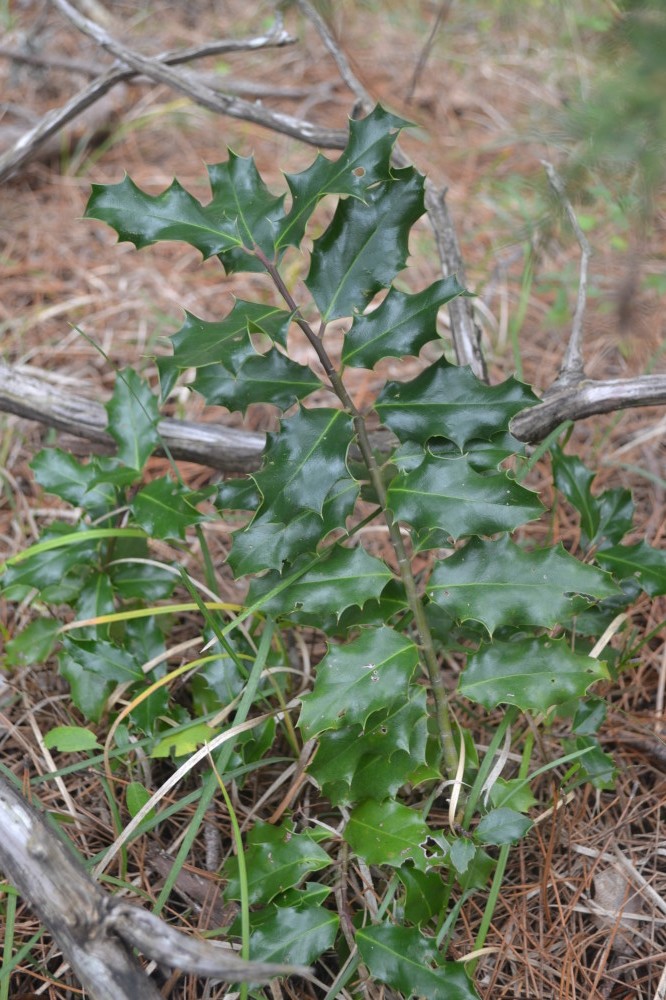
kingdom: Plantae
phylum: Tracheophyta
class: Magnoliopsida
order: Aquifoliales
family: Aquifoliaceae
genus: Ilex
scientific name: Ilex aquifolium
